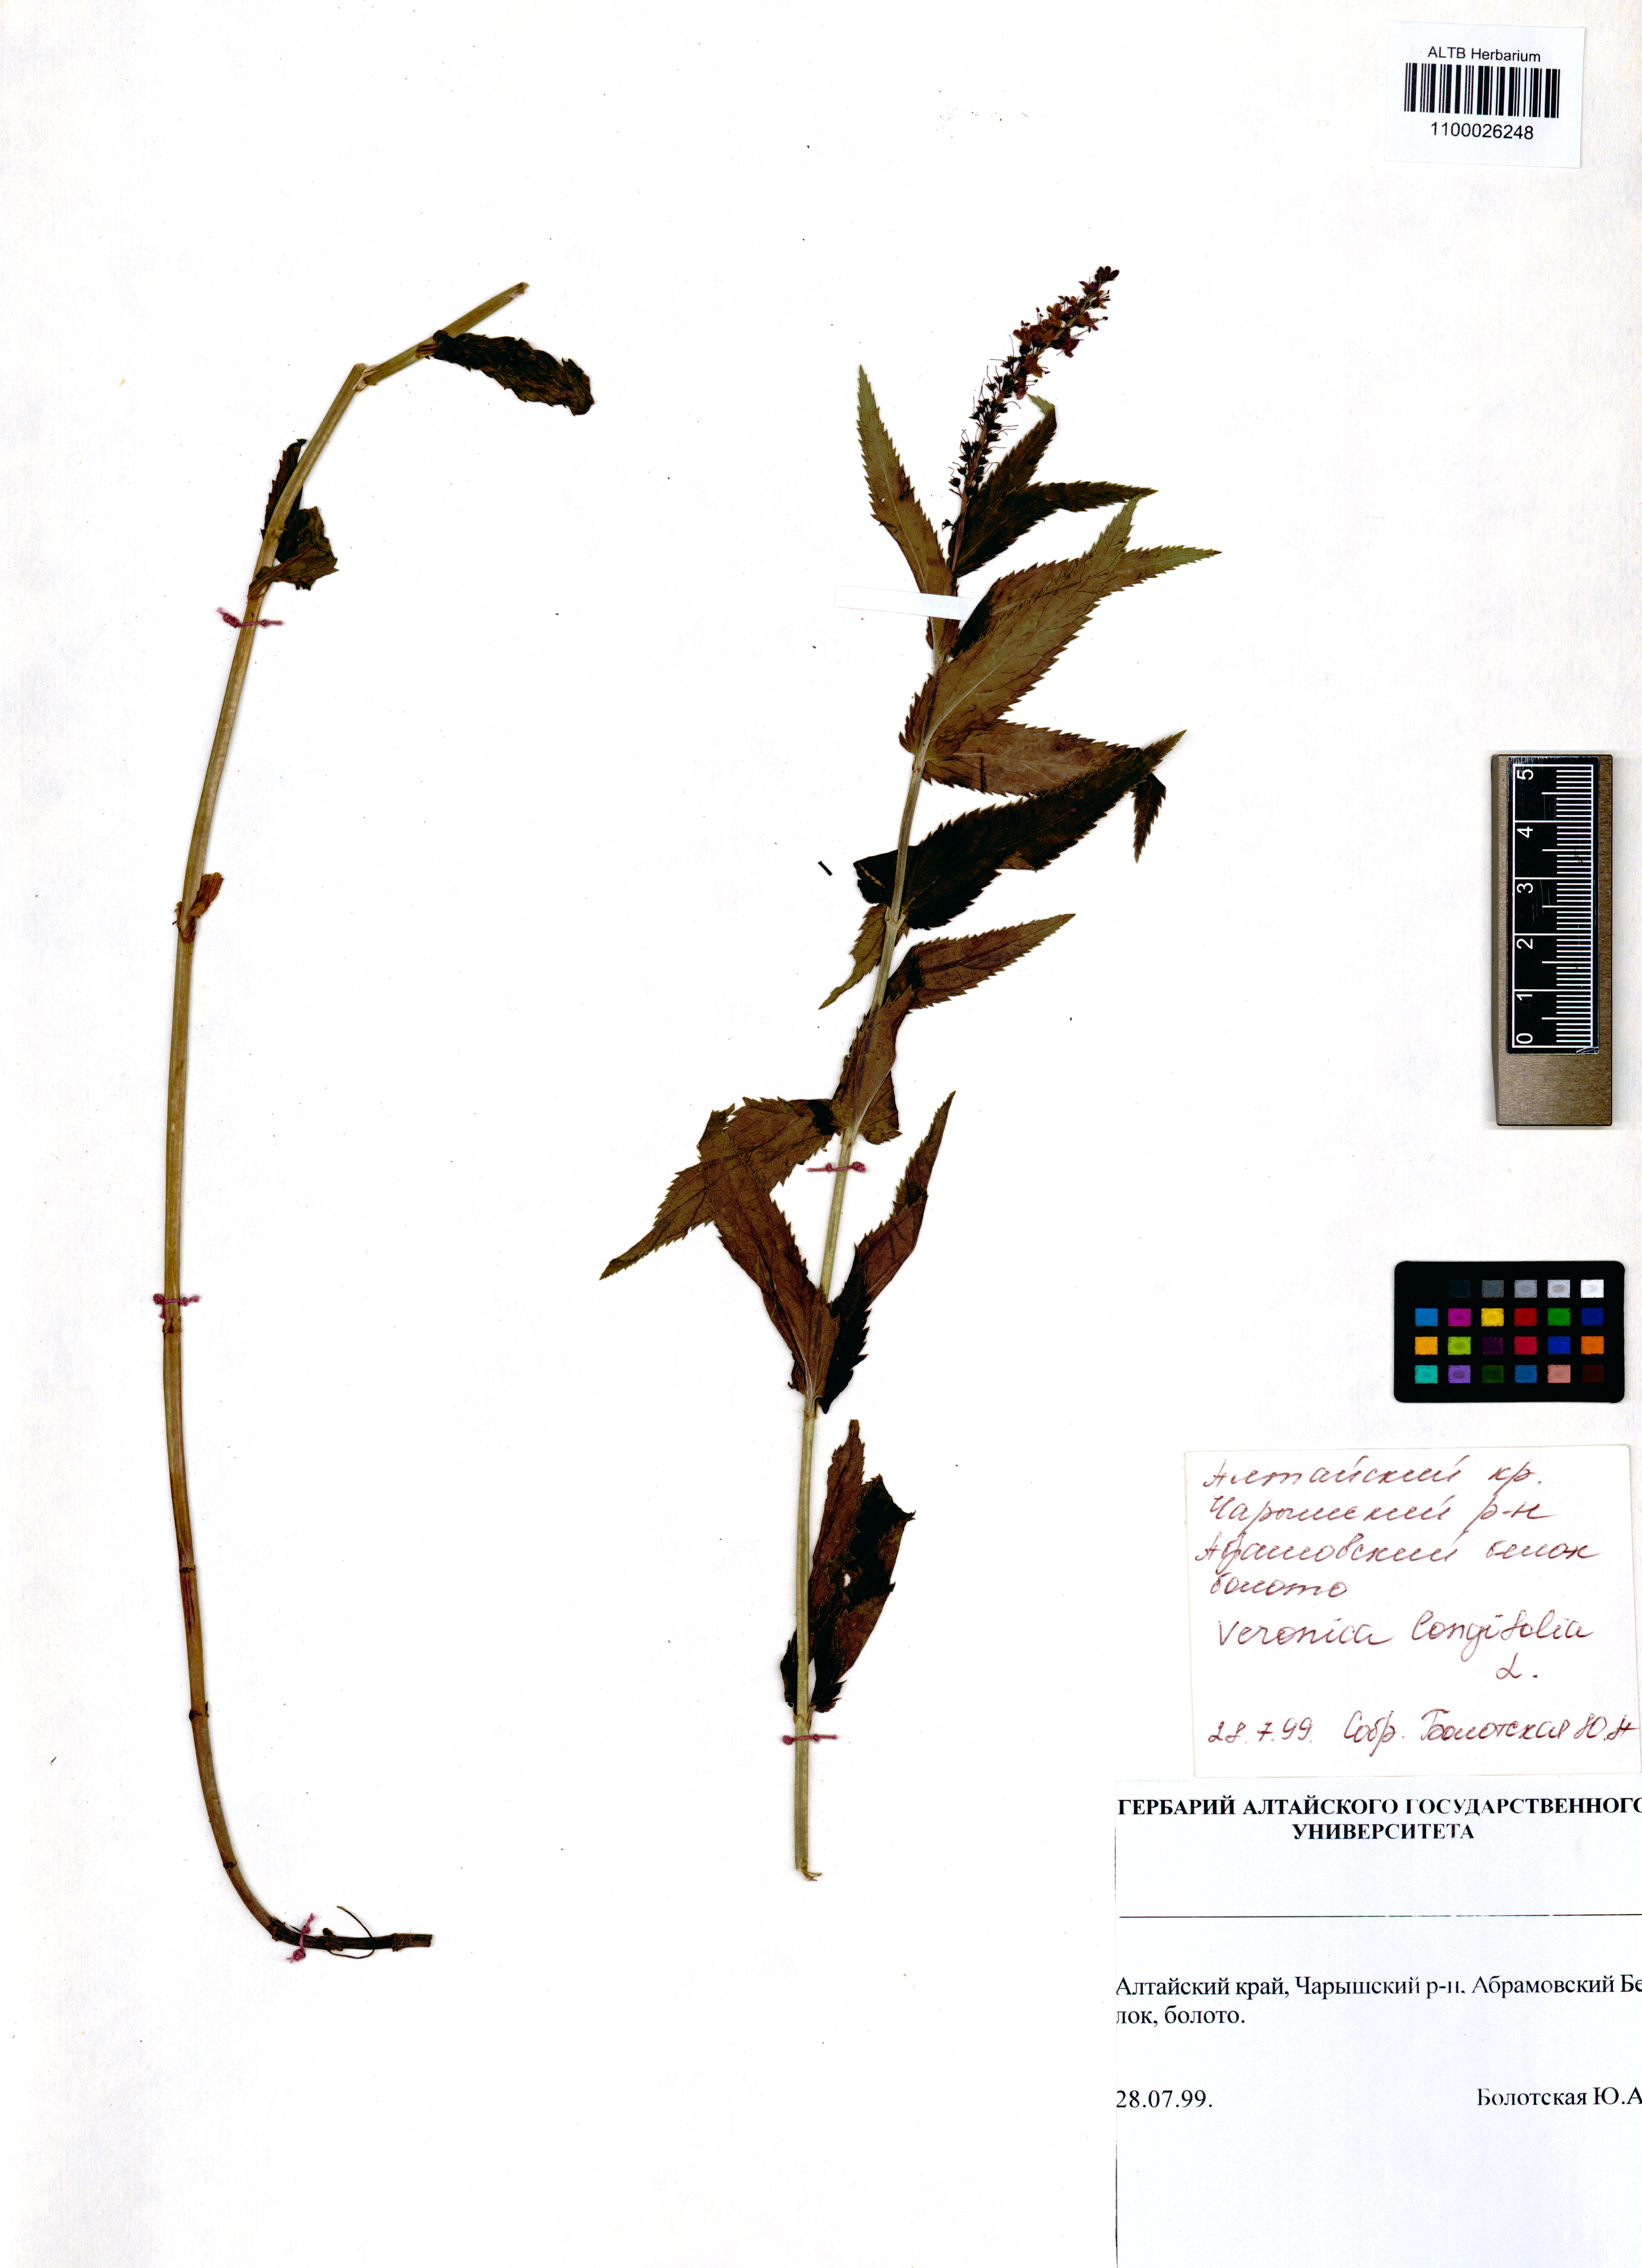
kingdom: Plantae
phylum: Tracheophyta
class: Magnoliopsida
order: Lamiales
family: Plantaginaceae
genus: Veronica
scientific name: Veronica longifolia
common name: Garden speedwell
